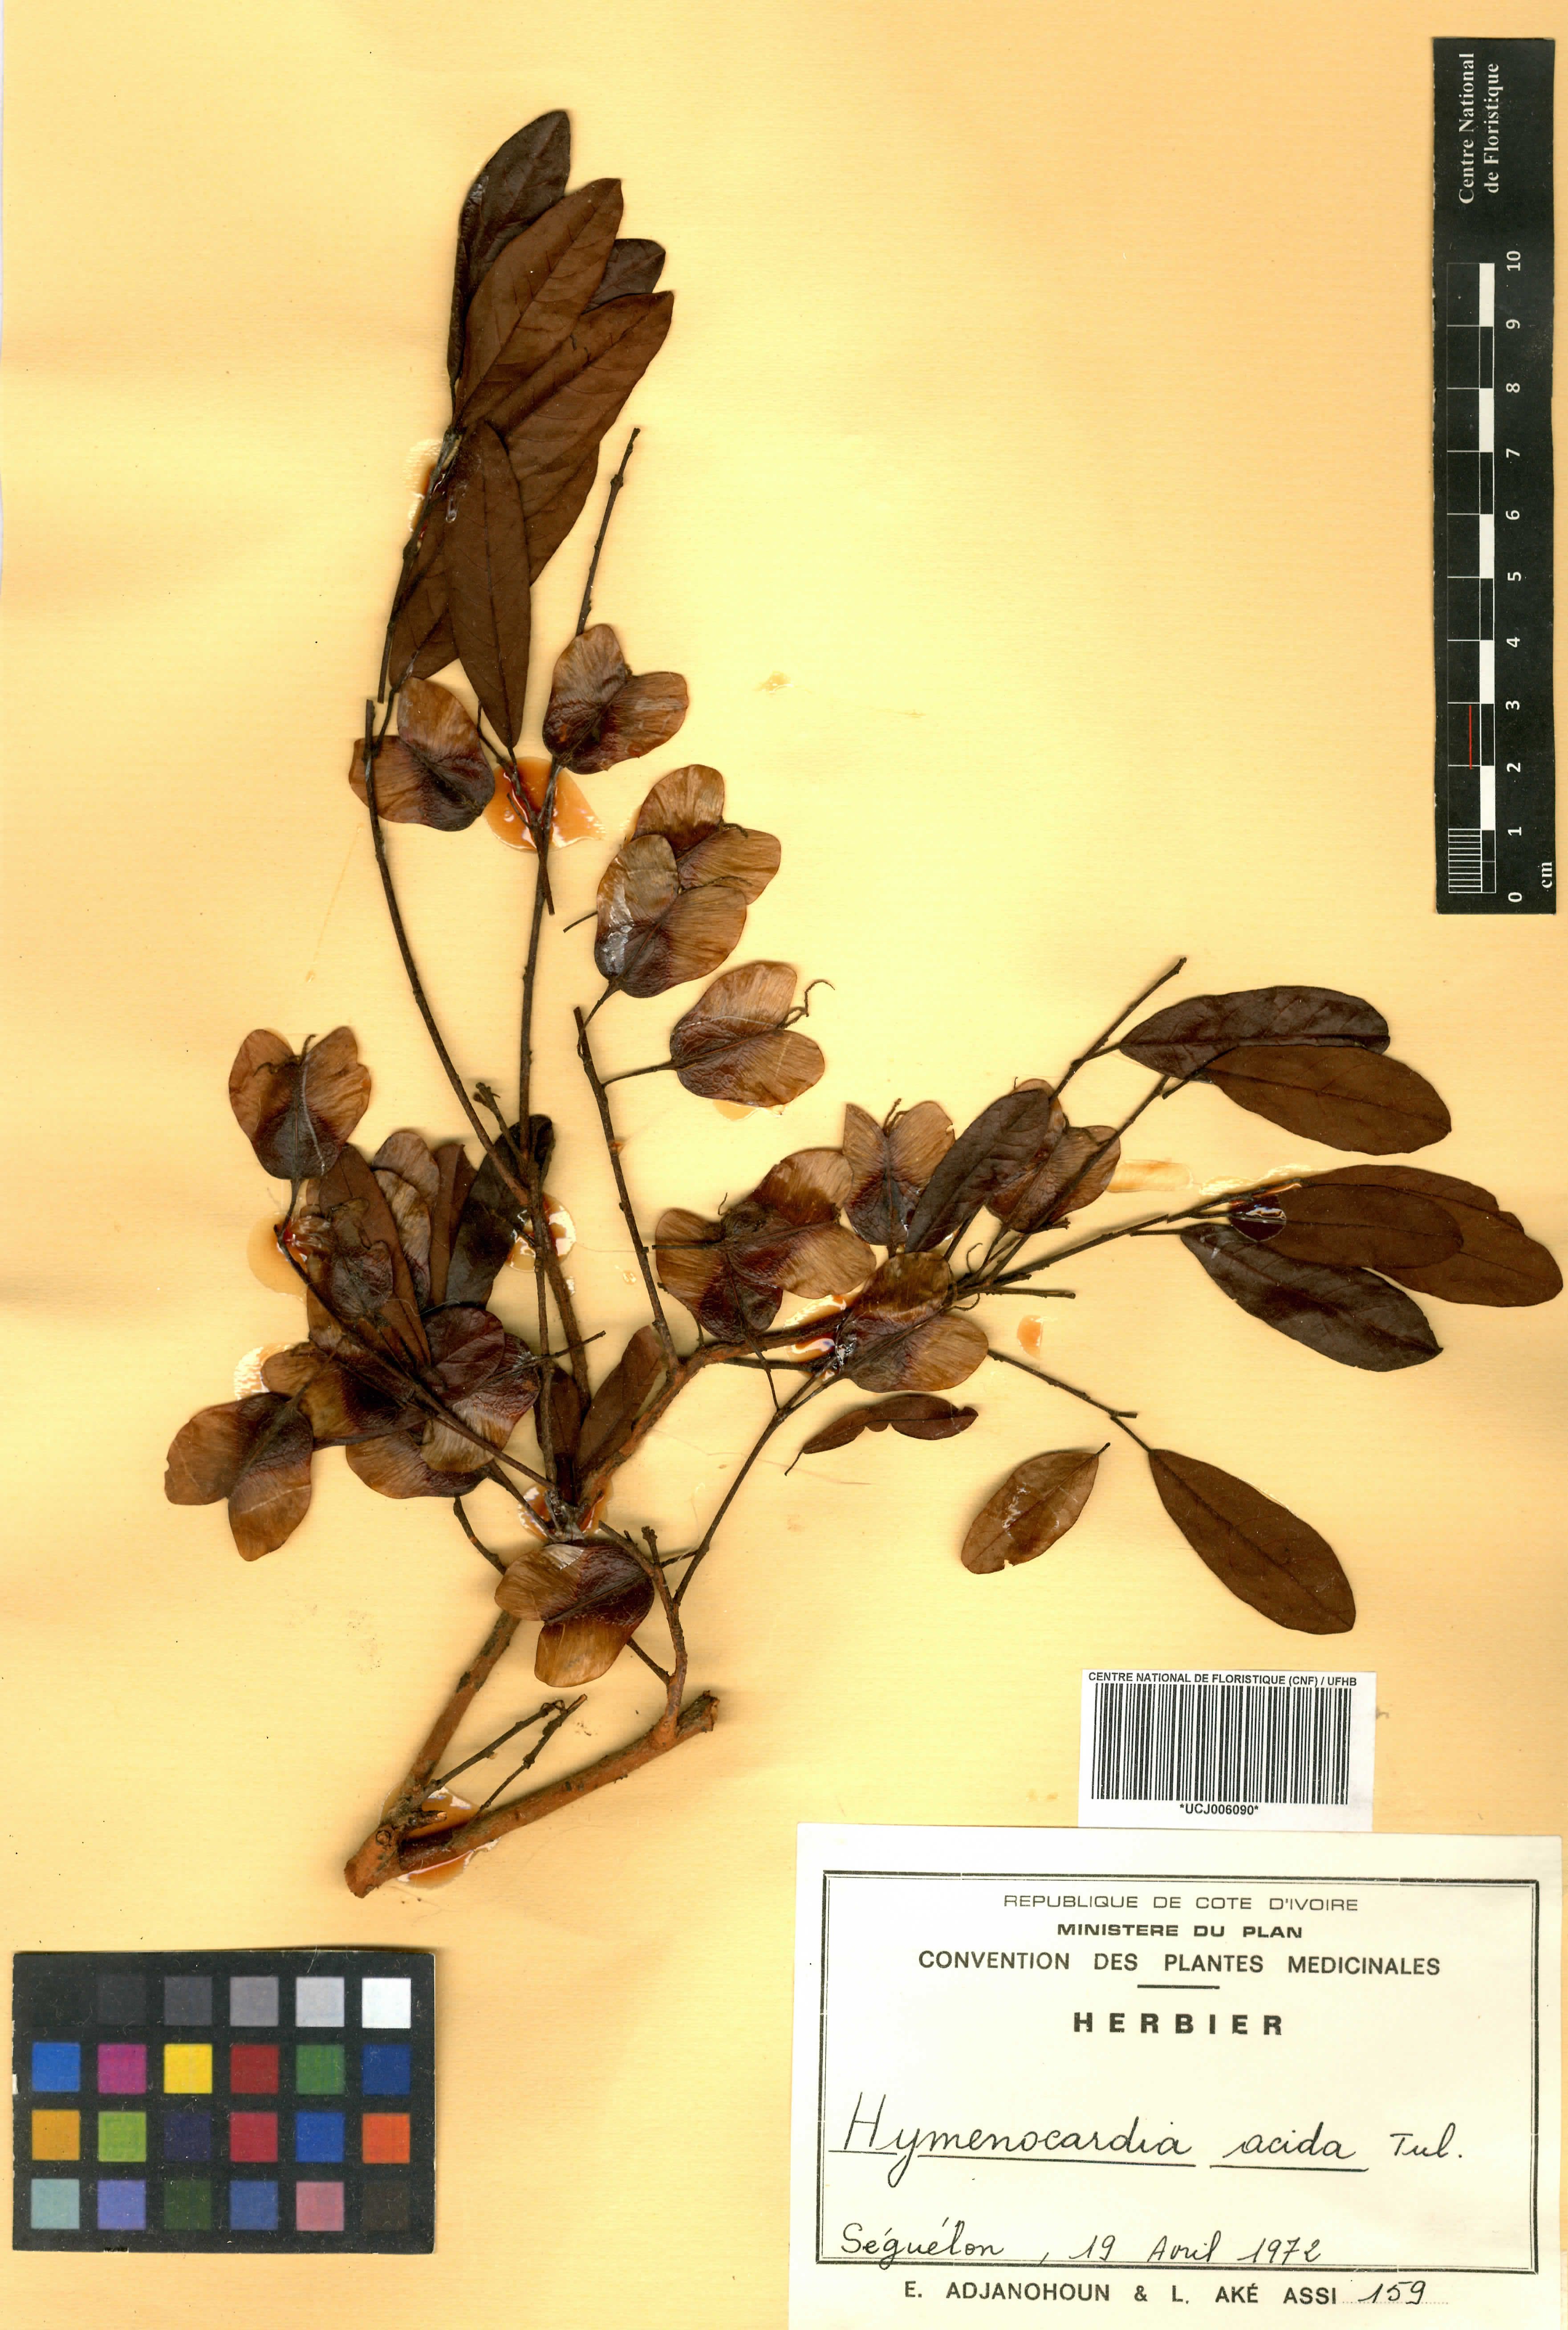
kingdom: Plantae
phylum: Tracheophyta
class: Magnoliopsida
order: Malpighiales
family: Phyllanthaceae
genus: Hymenocardia
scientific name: Hymenocardia acida
